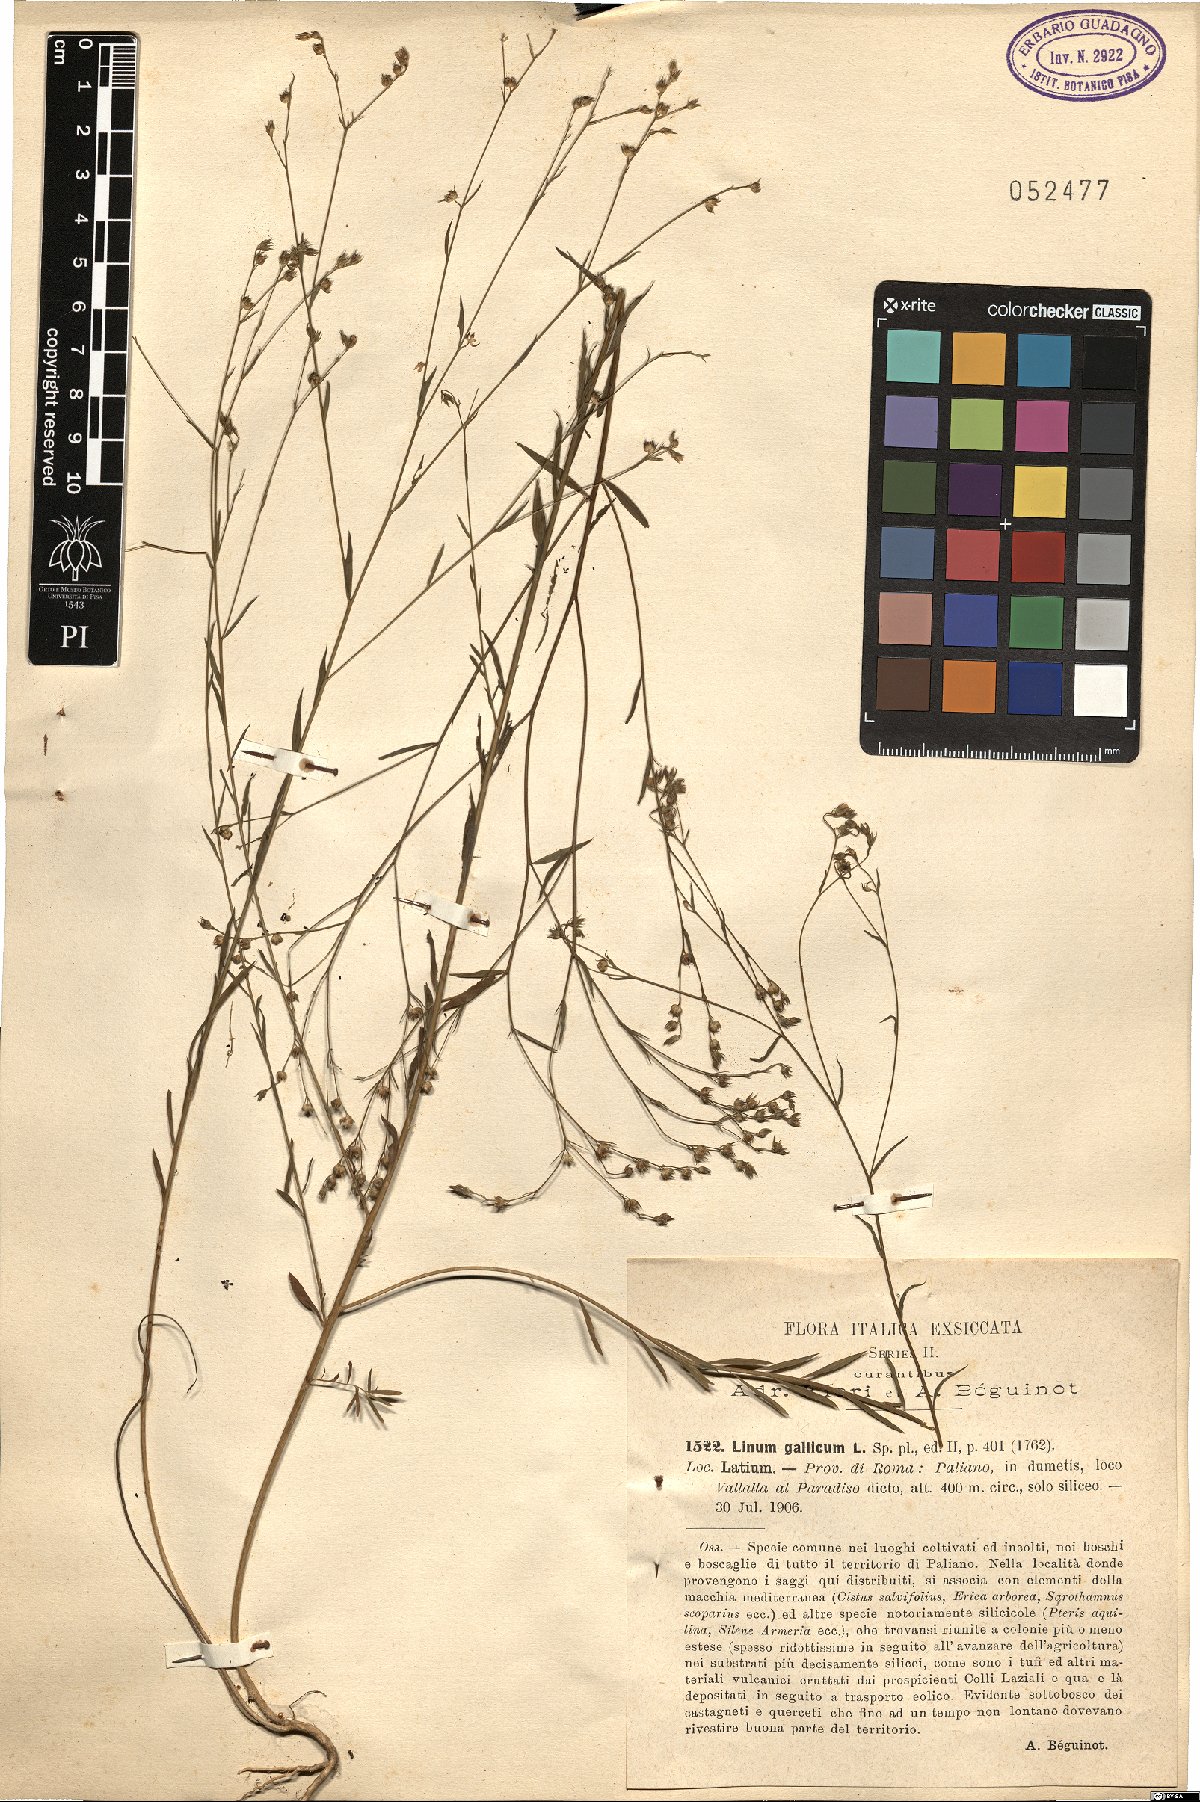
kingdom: Plantae
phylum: Tracheophyta
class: Magnoliopsida
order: Malpighiales
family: Linaceae
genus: Linum
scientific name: Linum trigynum
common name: French flax
